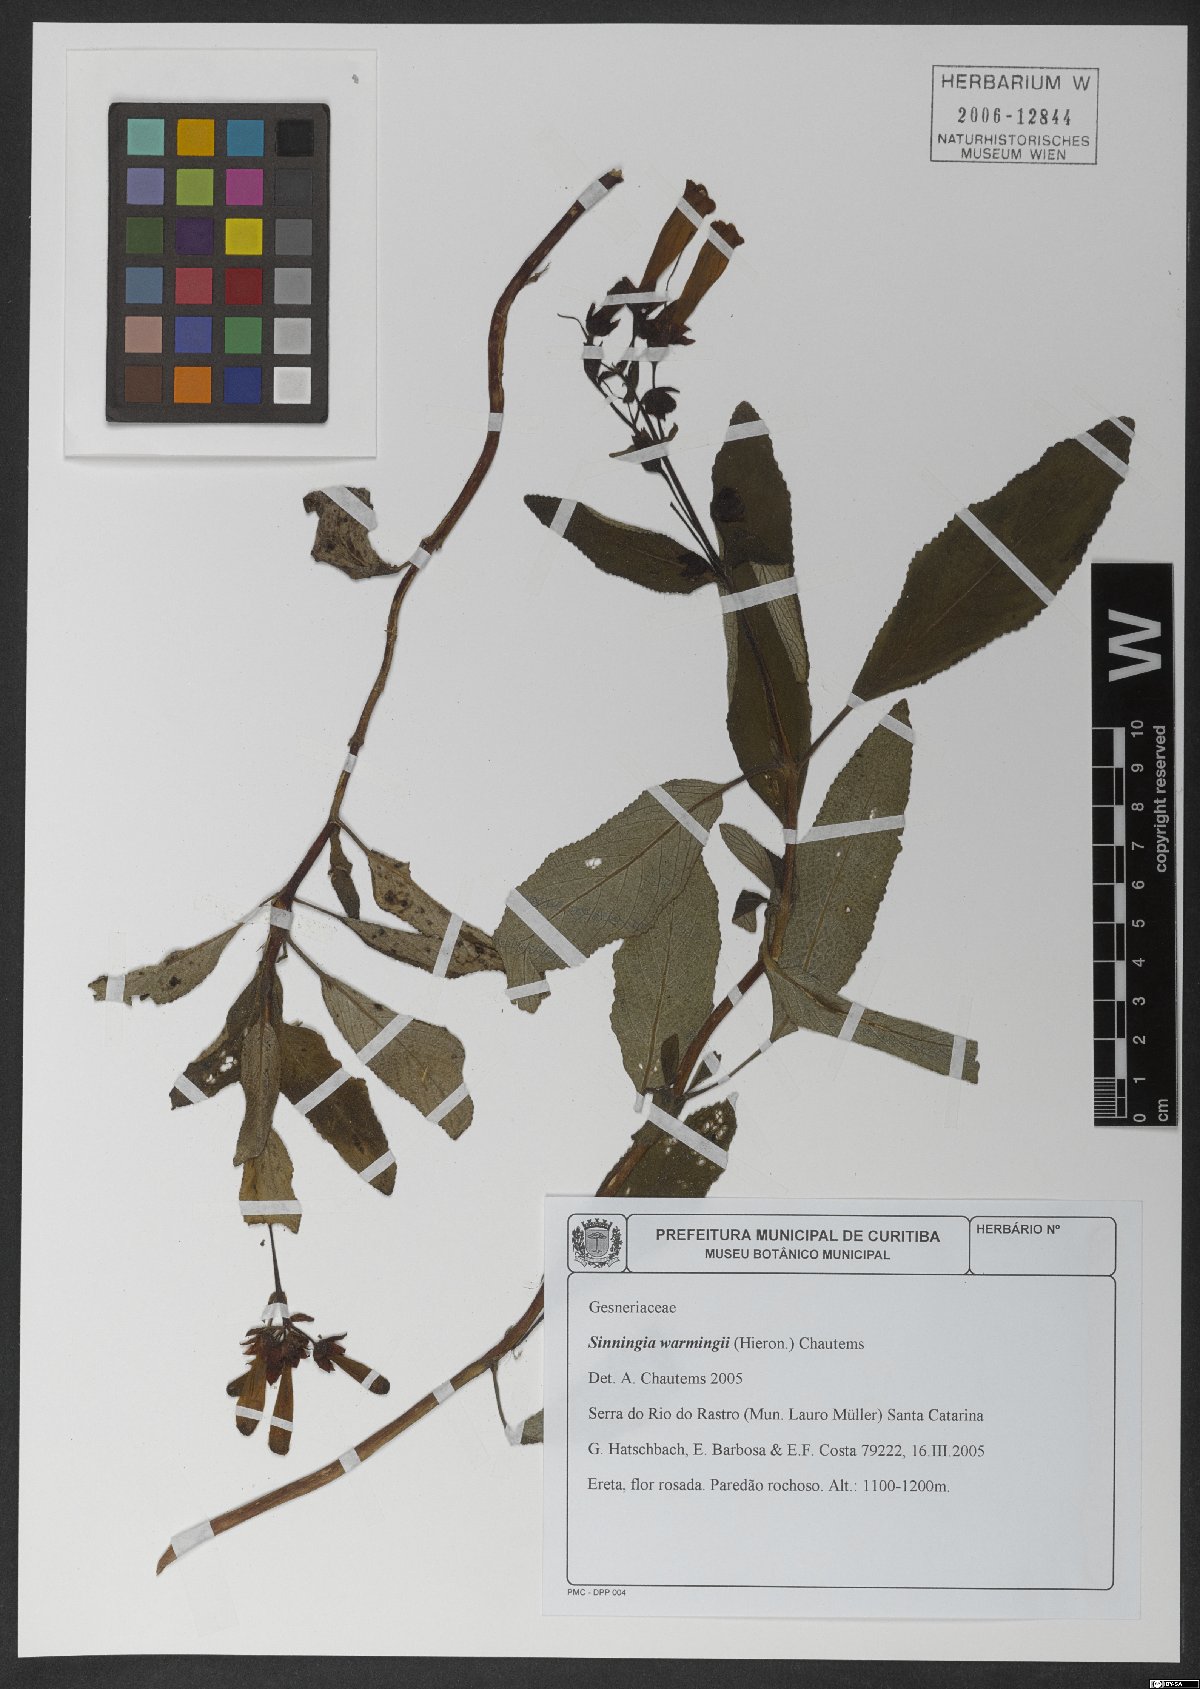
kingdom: Plantae
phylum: Tracheophyta
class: Magnoliopsida
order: Lamiales
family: Gesneriaceae
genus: Sinningia
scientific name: Sinningia warmingii
